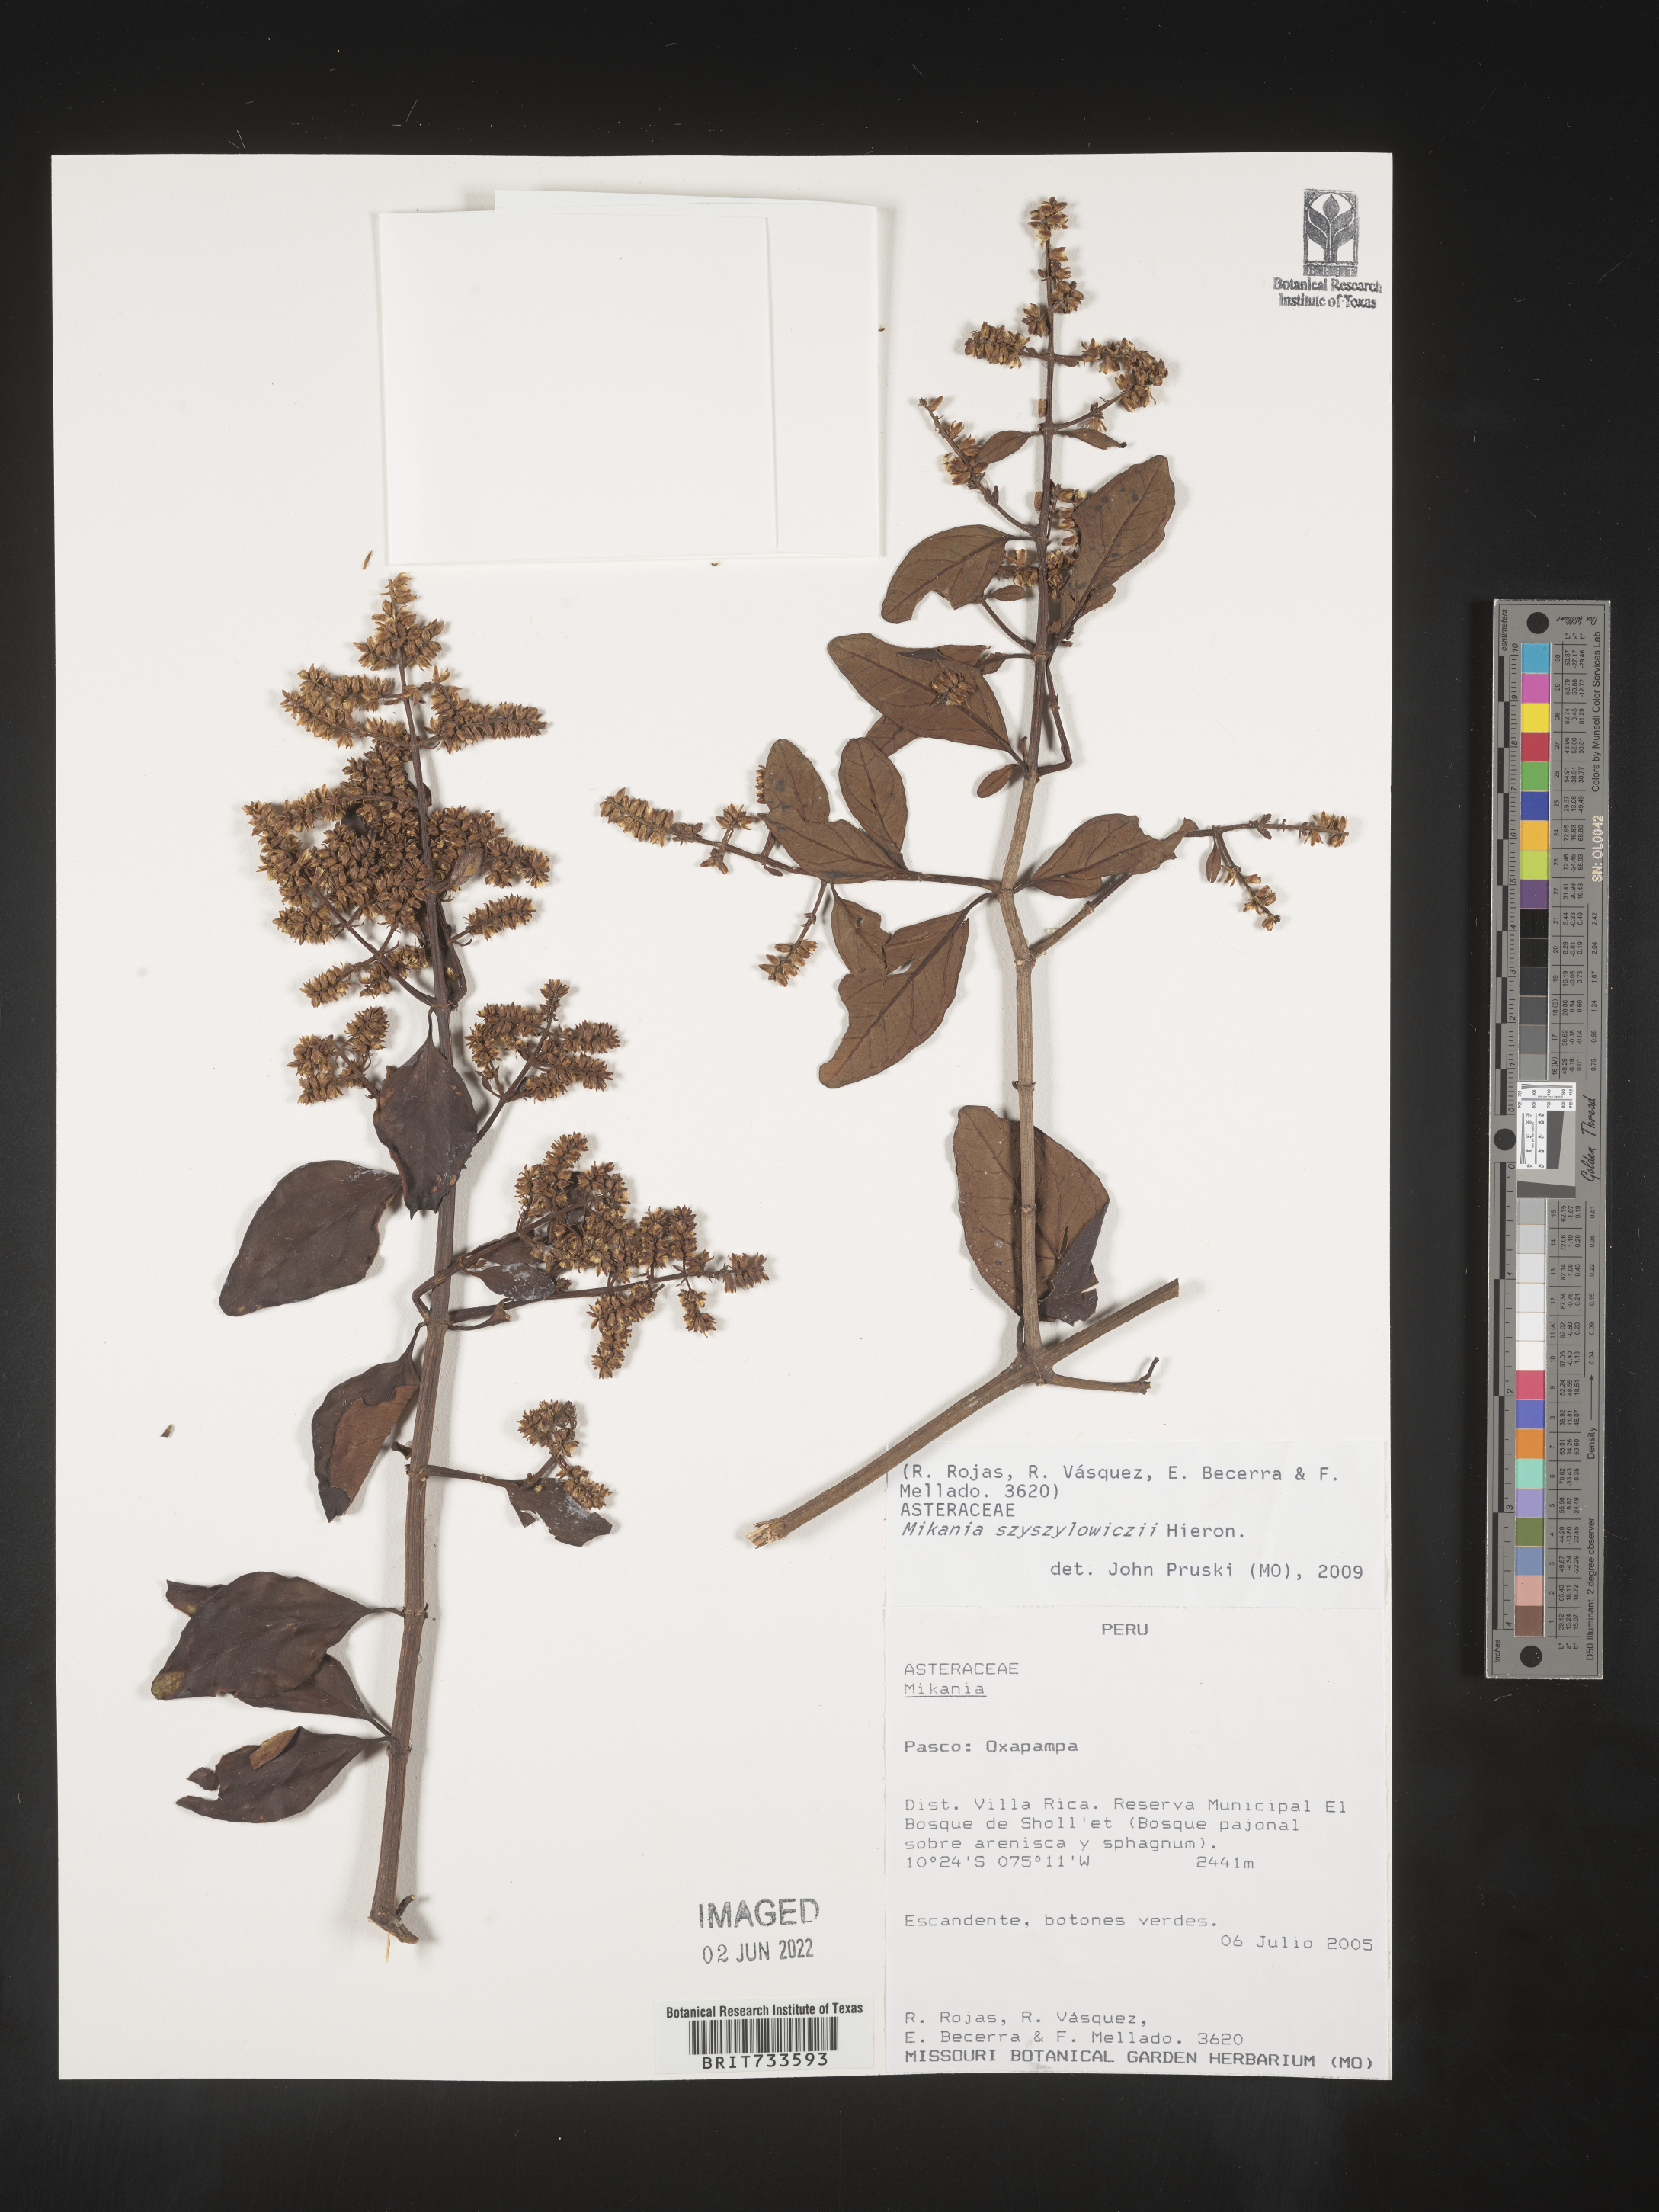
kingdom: Plantae
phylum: Tracheophyta
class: Magnoliopsida
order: Asterales
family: Asteraceae
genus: Mikania
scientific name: Mikania
